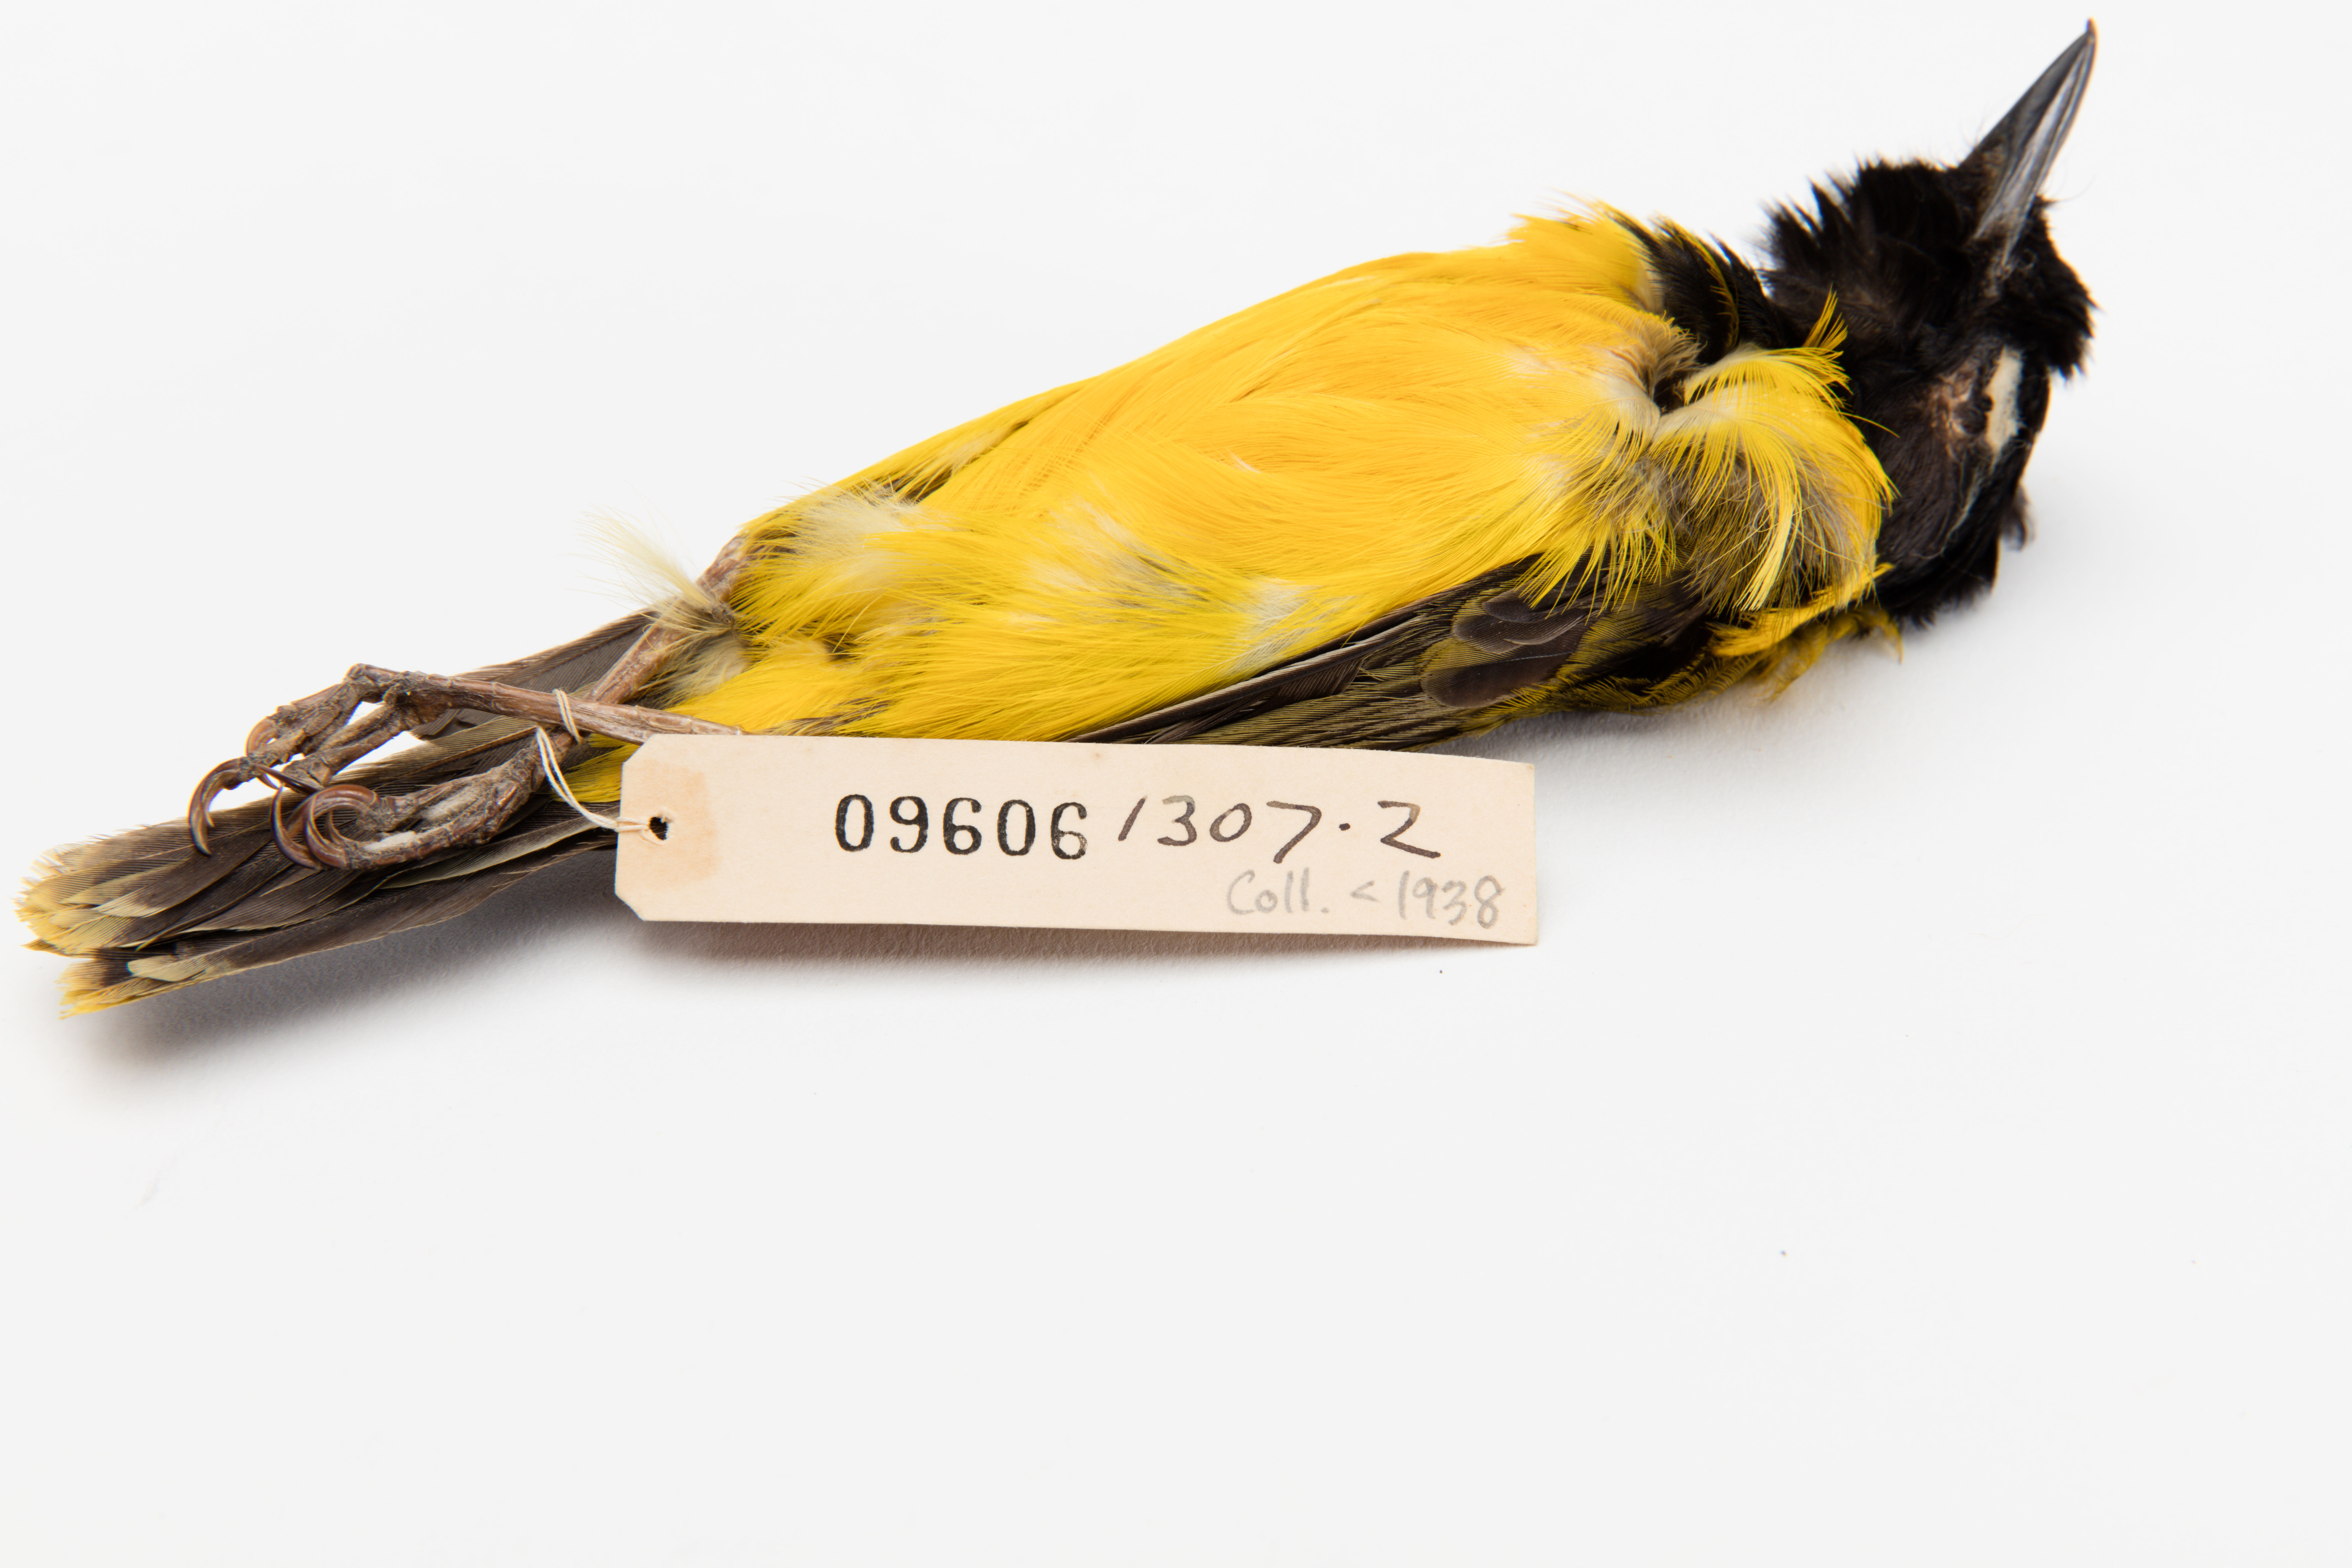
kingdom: Animalia
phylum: Chordata
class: Aves
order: Passeriformes
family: Pachycephalidae
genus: Pachycephala
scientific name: Pachycephala jacquinoti
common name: Tongan whistler
